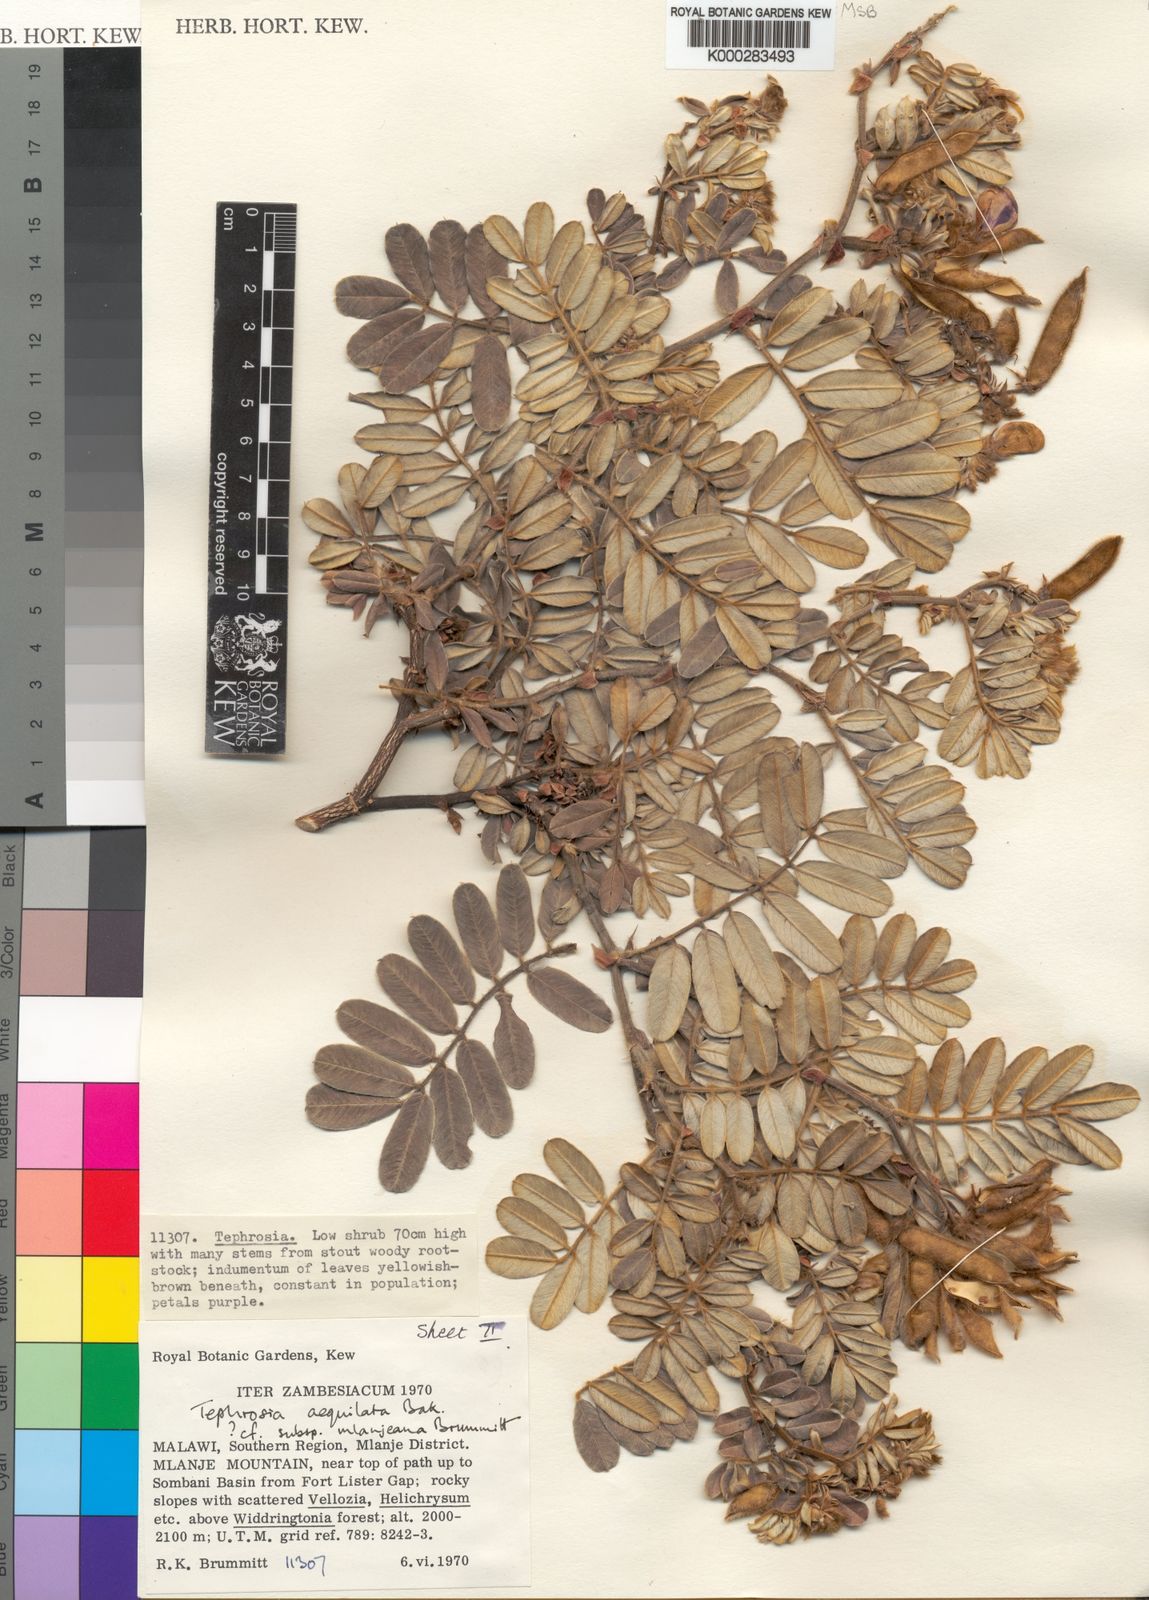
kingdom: Plantae
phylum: Tracheophyta
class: Magnoliopsida
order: Fabales
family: Fabaceae
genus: Tephrosia
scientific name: Tephrosia aequilata
